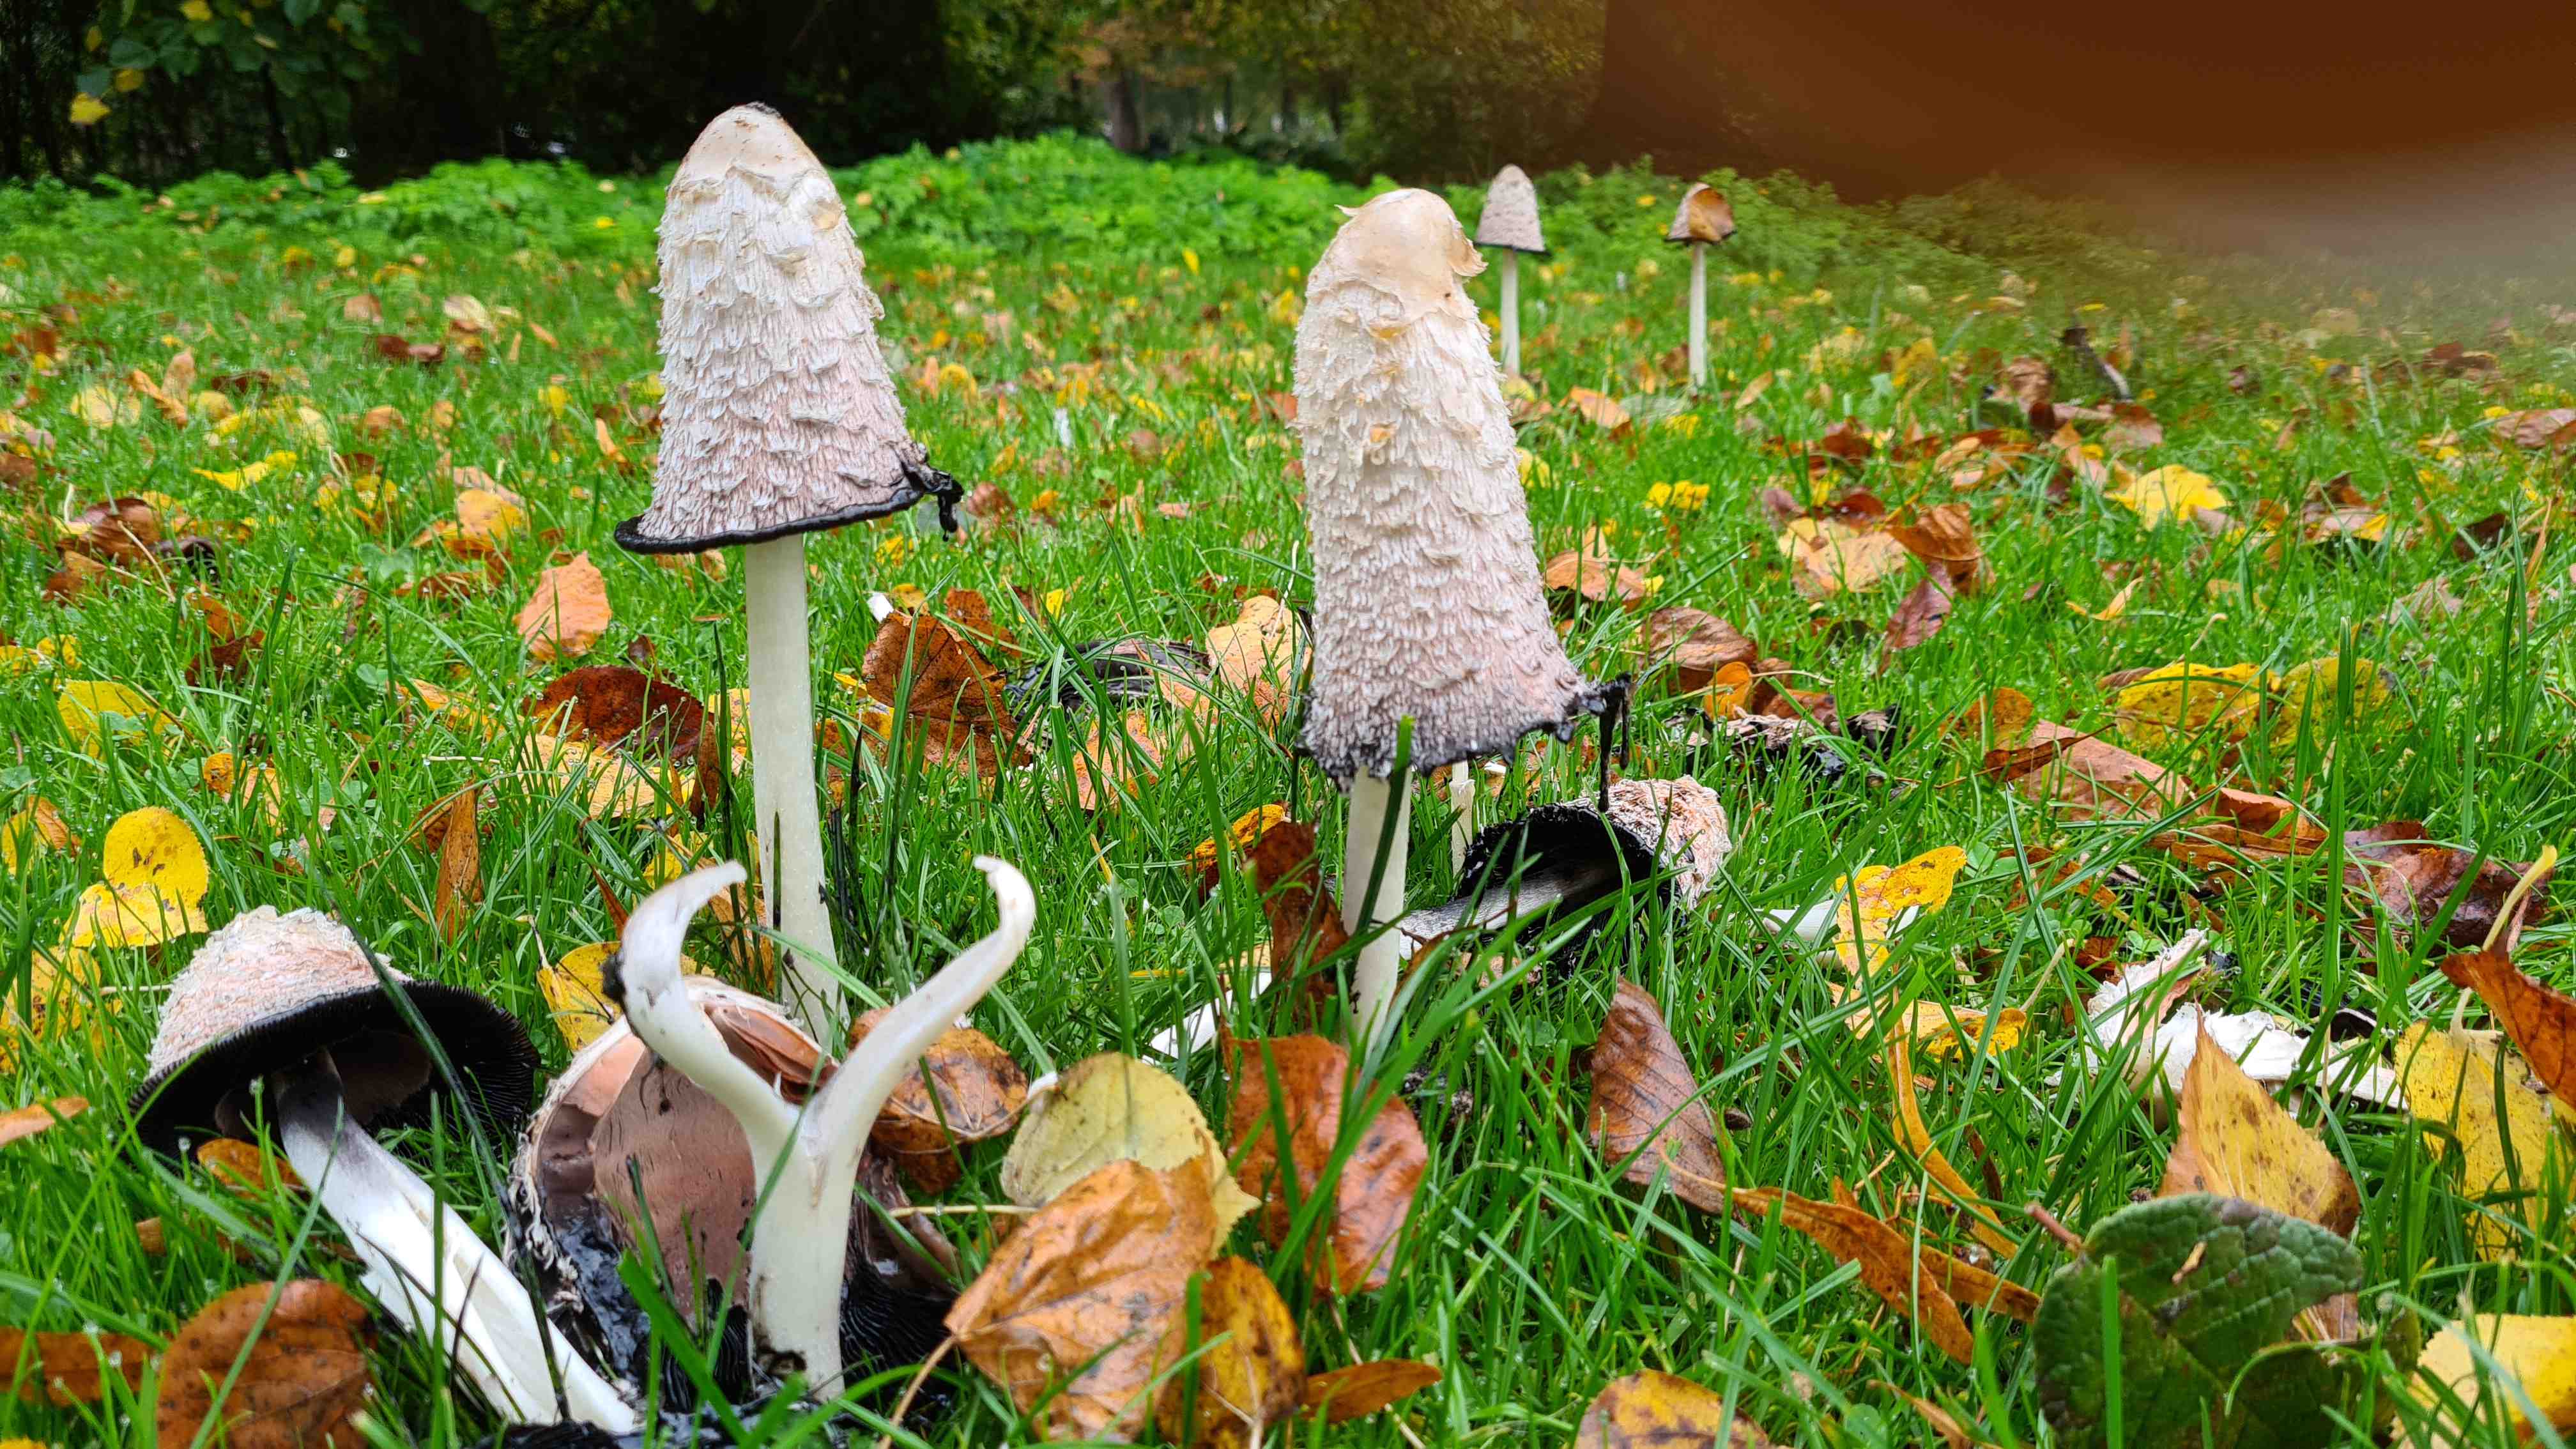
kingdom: Fungi
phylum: Basidiomycota
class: Agaricomycetes
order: Agaricales
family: Agaricaceae
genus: Coprinus
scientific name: Coprinus comatus
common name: stor parykhat
